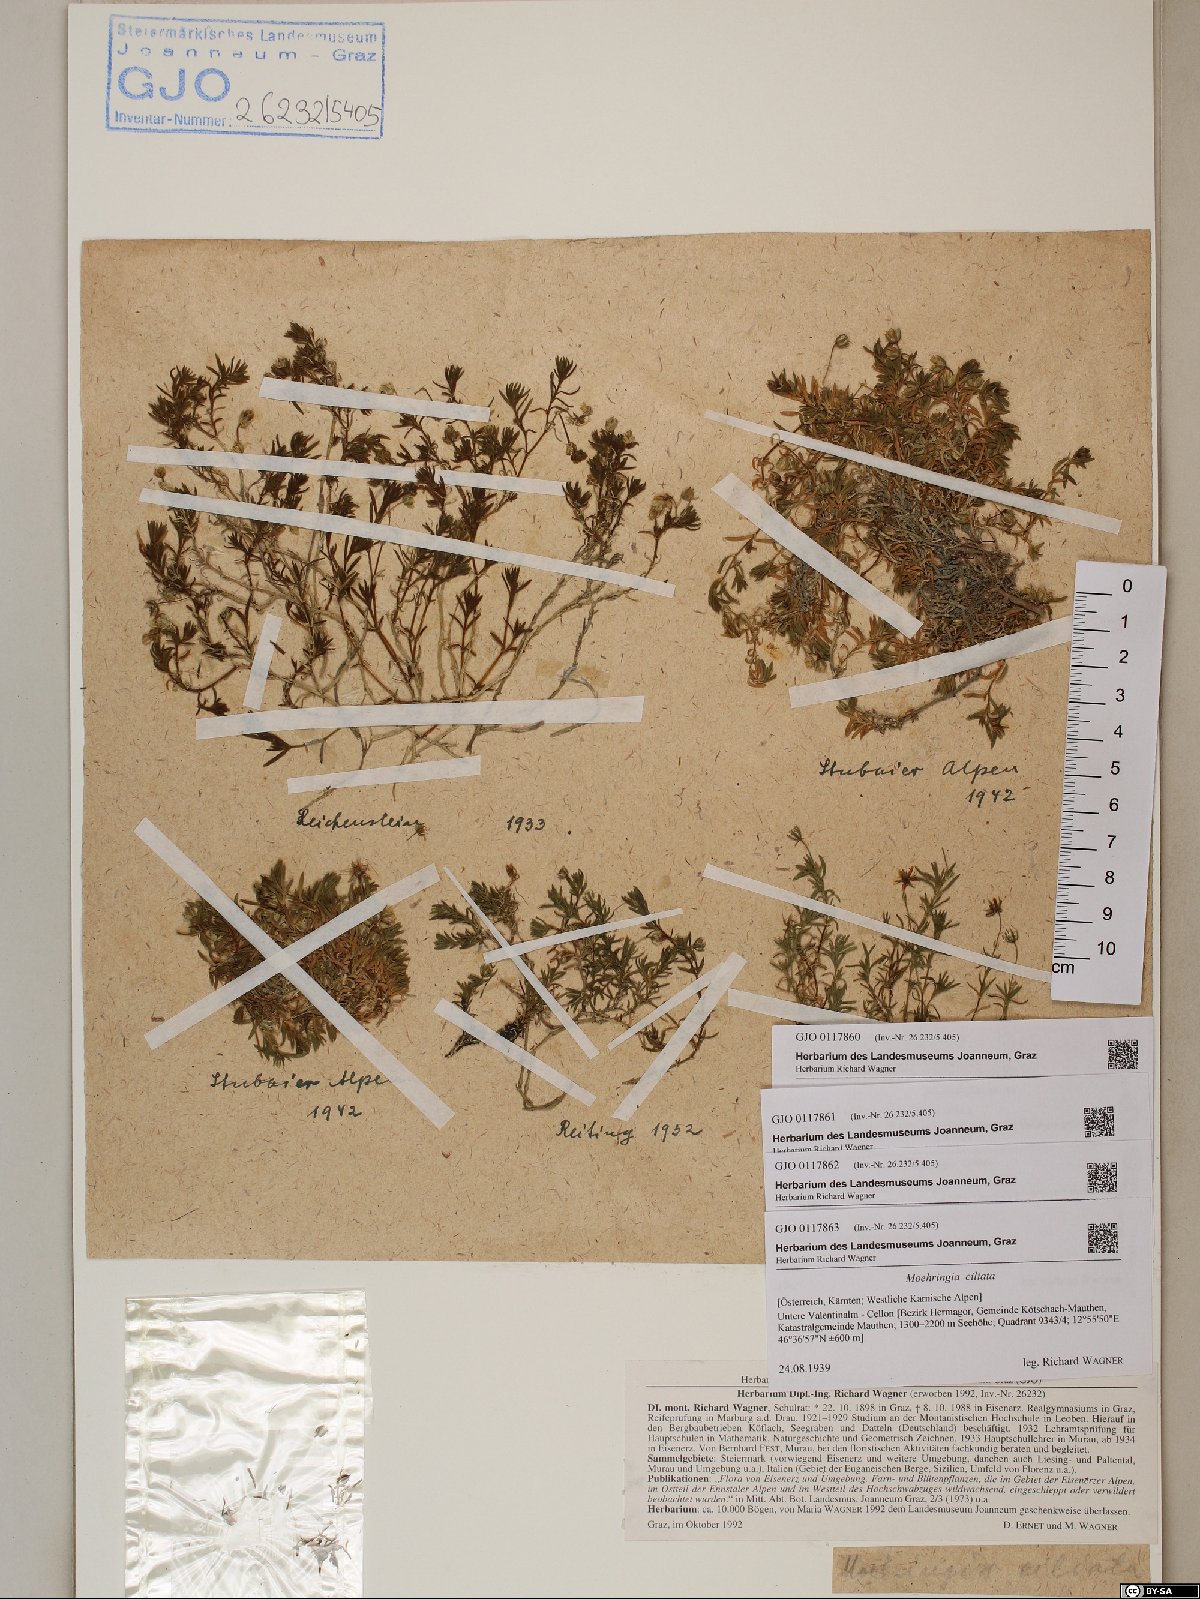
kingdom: Plantae
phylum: Tracheophyta
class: Magnoliopsida
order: Caryophyllales
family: Caryophyllaceae
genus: Moehringia
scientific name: Moehringia ciliata
